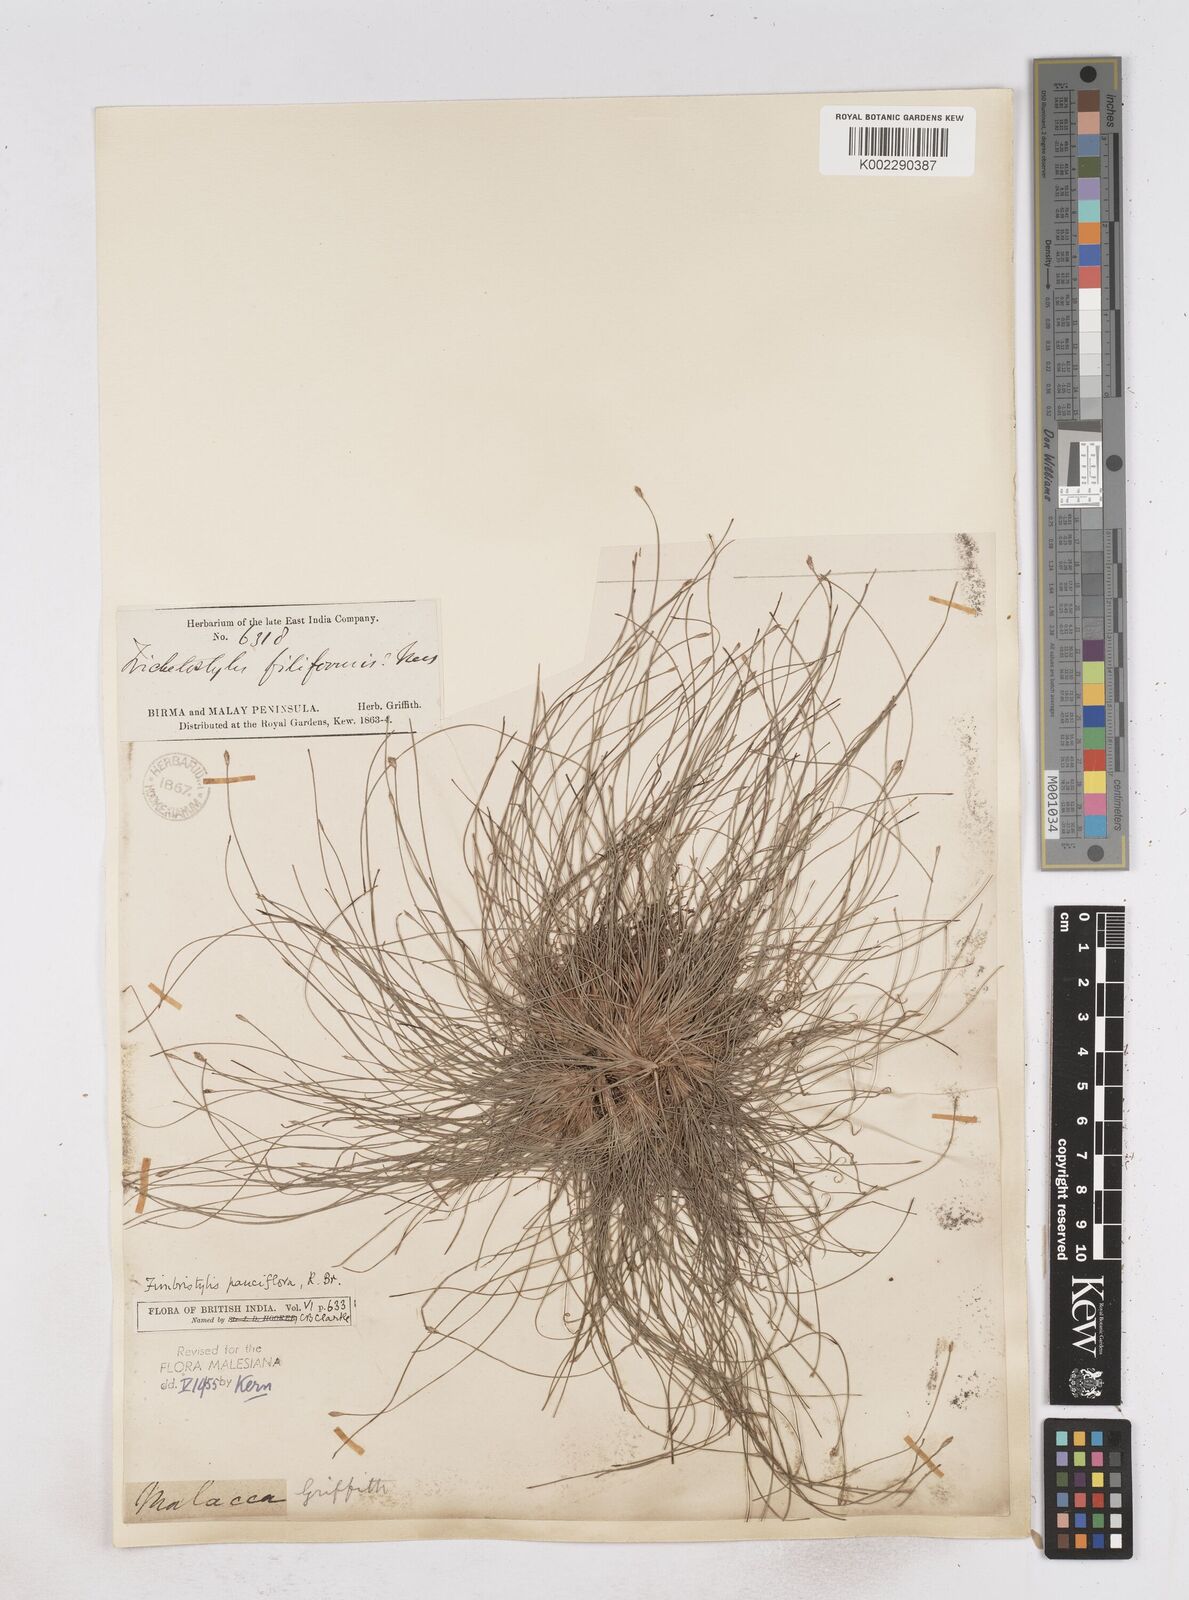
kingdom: Plantae
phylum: Tracheophyta
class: Liliopsida
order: Poales
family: Cyperaceae
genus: Fimbristylis
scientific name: Fimbristylis pauciflora
